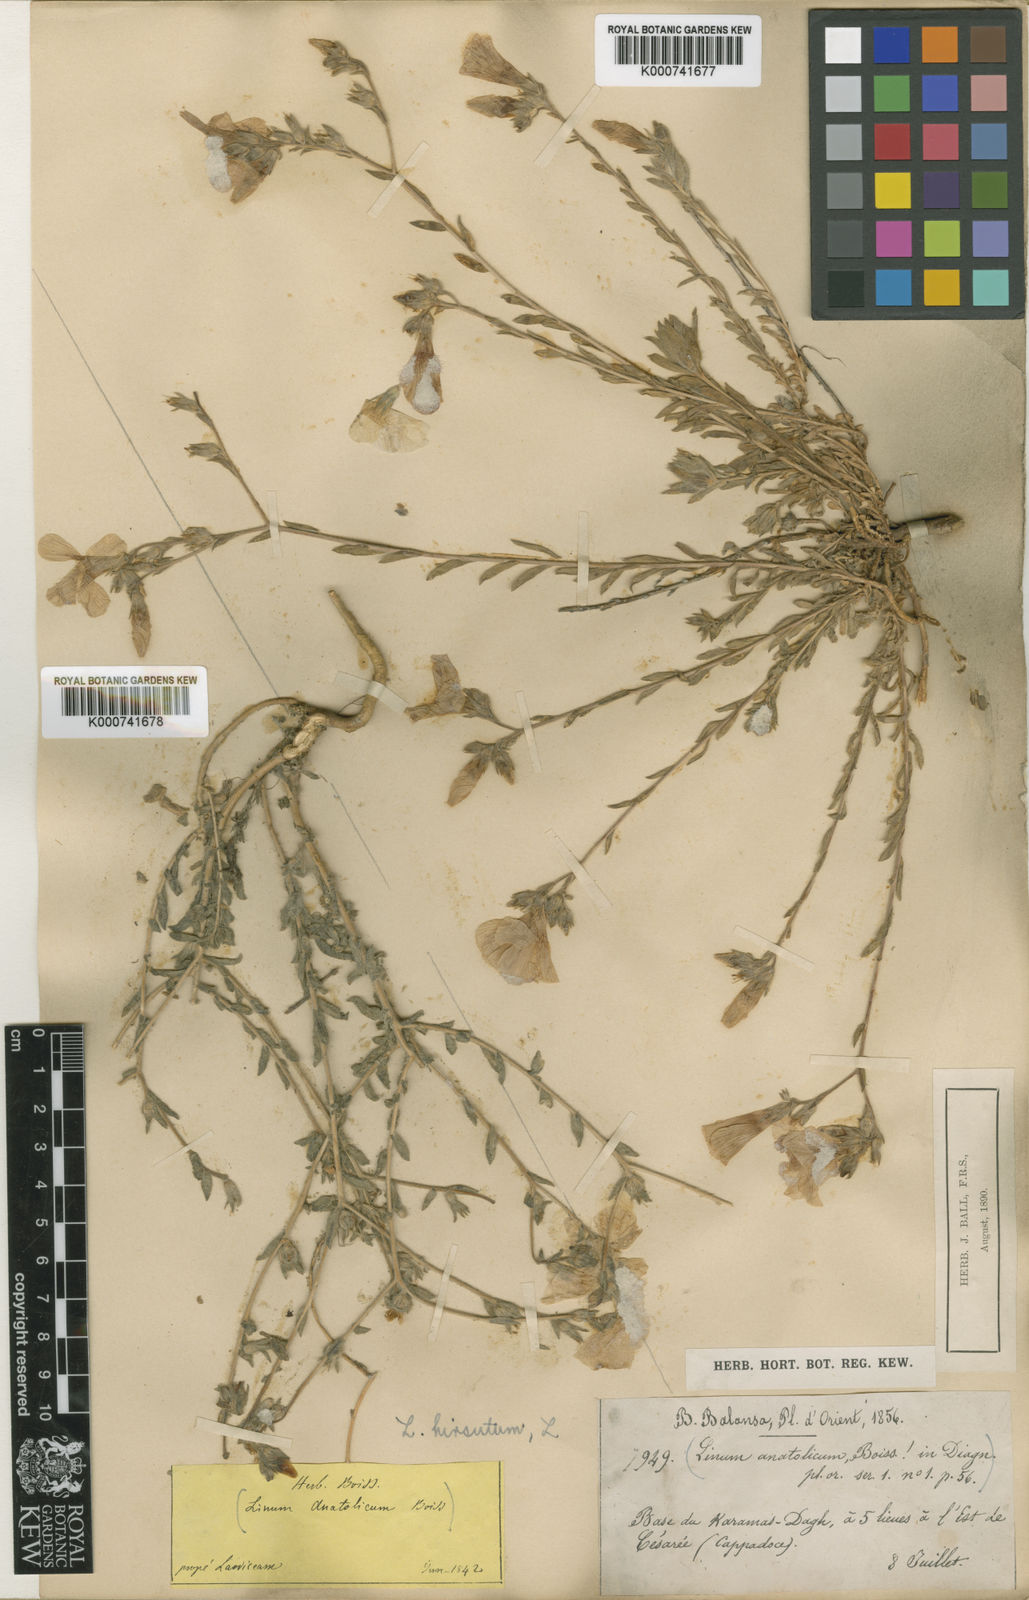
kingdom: Plantae
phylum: Tracheophyta
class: Magnoliopsida
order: Malpighiales
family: Linaceae
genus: Linum
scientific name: Linum hirsutum
